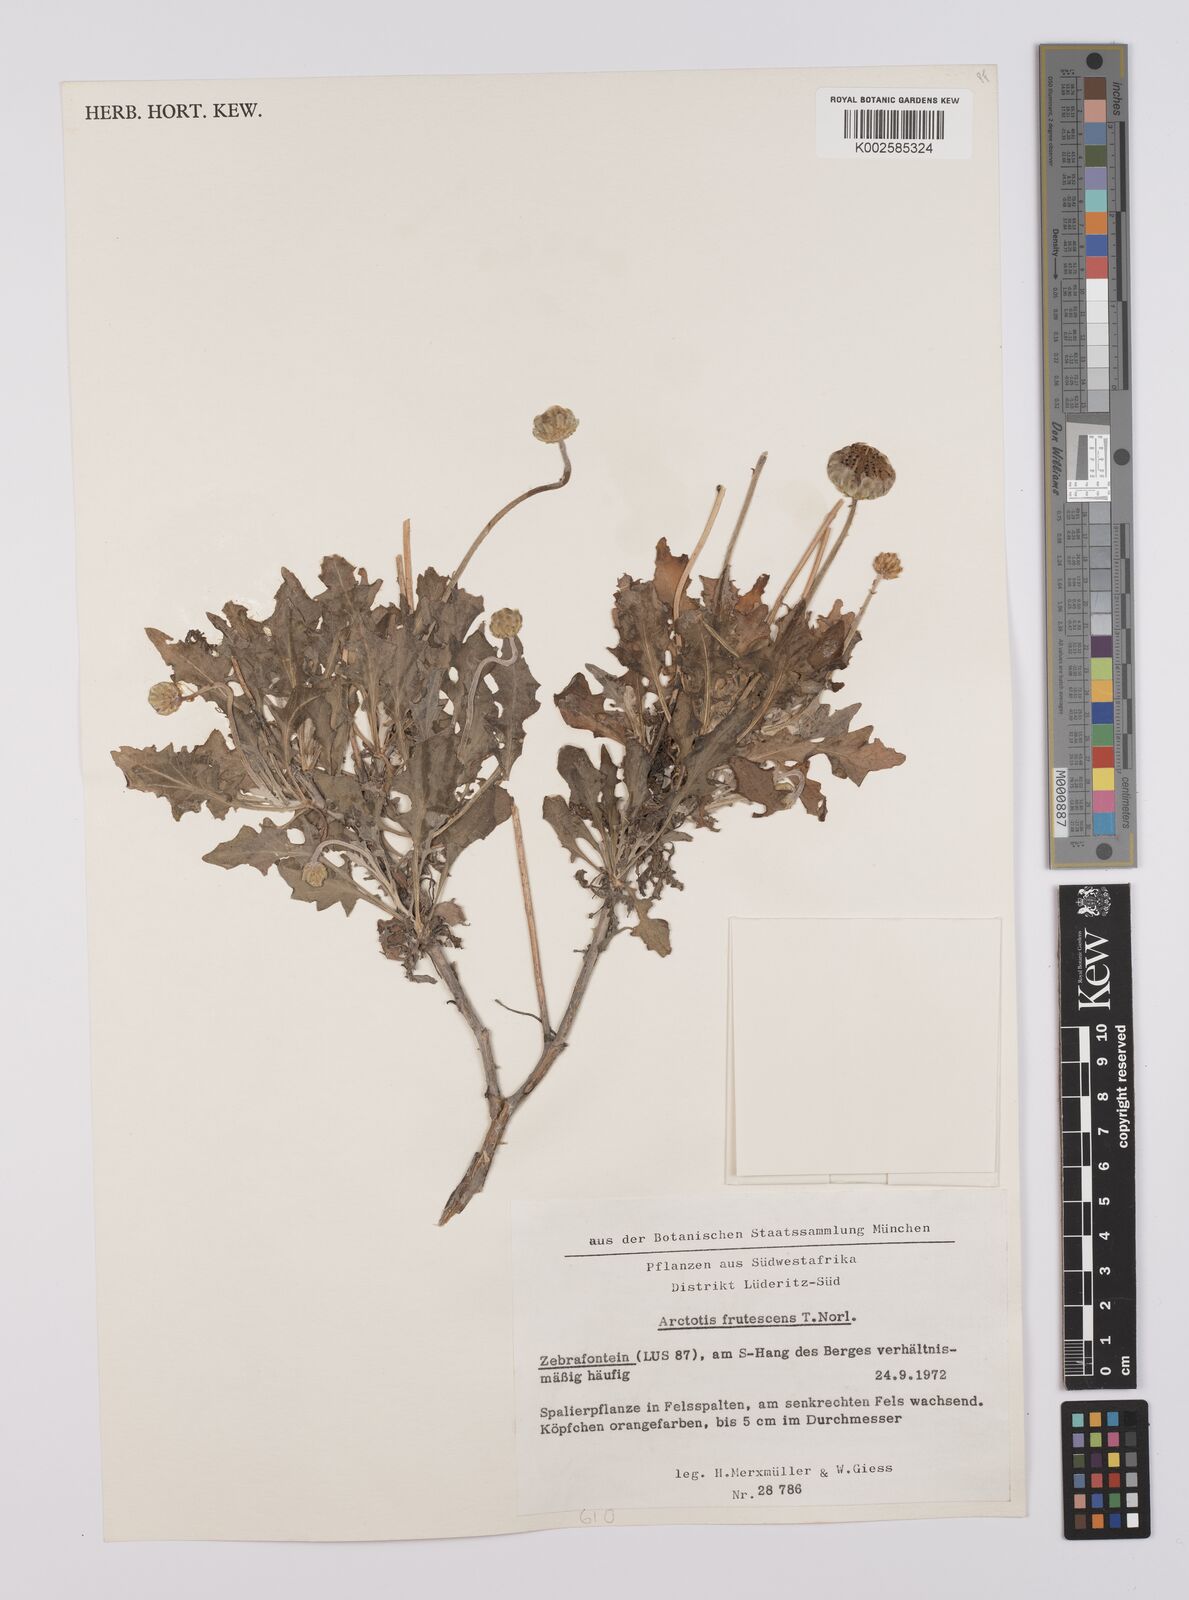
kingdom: Plantae
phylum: Tracheophyta
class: Magnoliopsida
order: Asterales
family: Asteraceae
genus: Arctotis
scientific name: Arctotis frutescens
